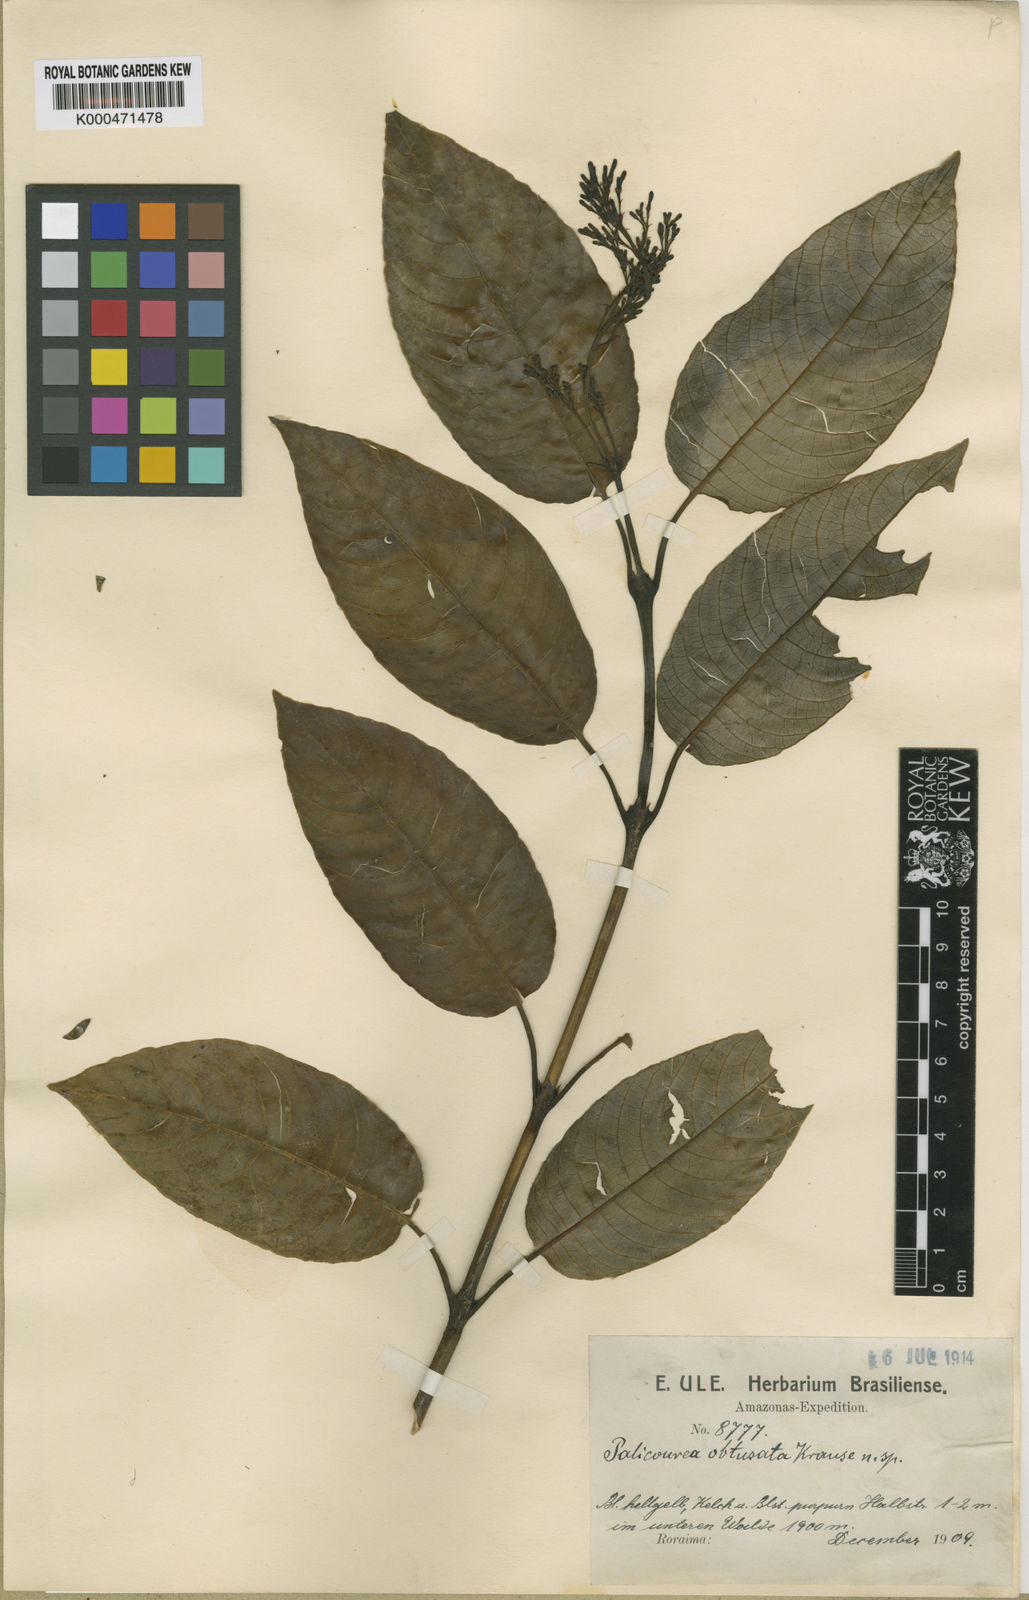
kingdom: Plantae
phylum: Tracheophyta
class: Magnoliopsida
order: Gentianales
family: Rubiaceae
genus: Palicourea
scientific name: Palicourea obtusata
